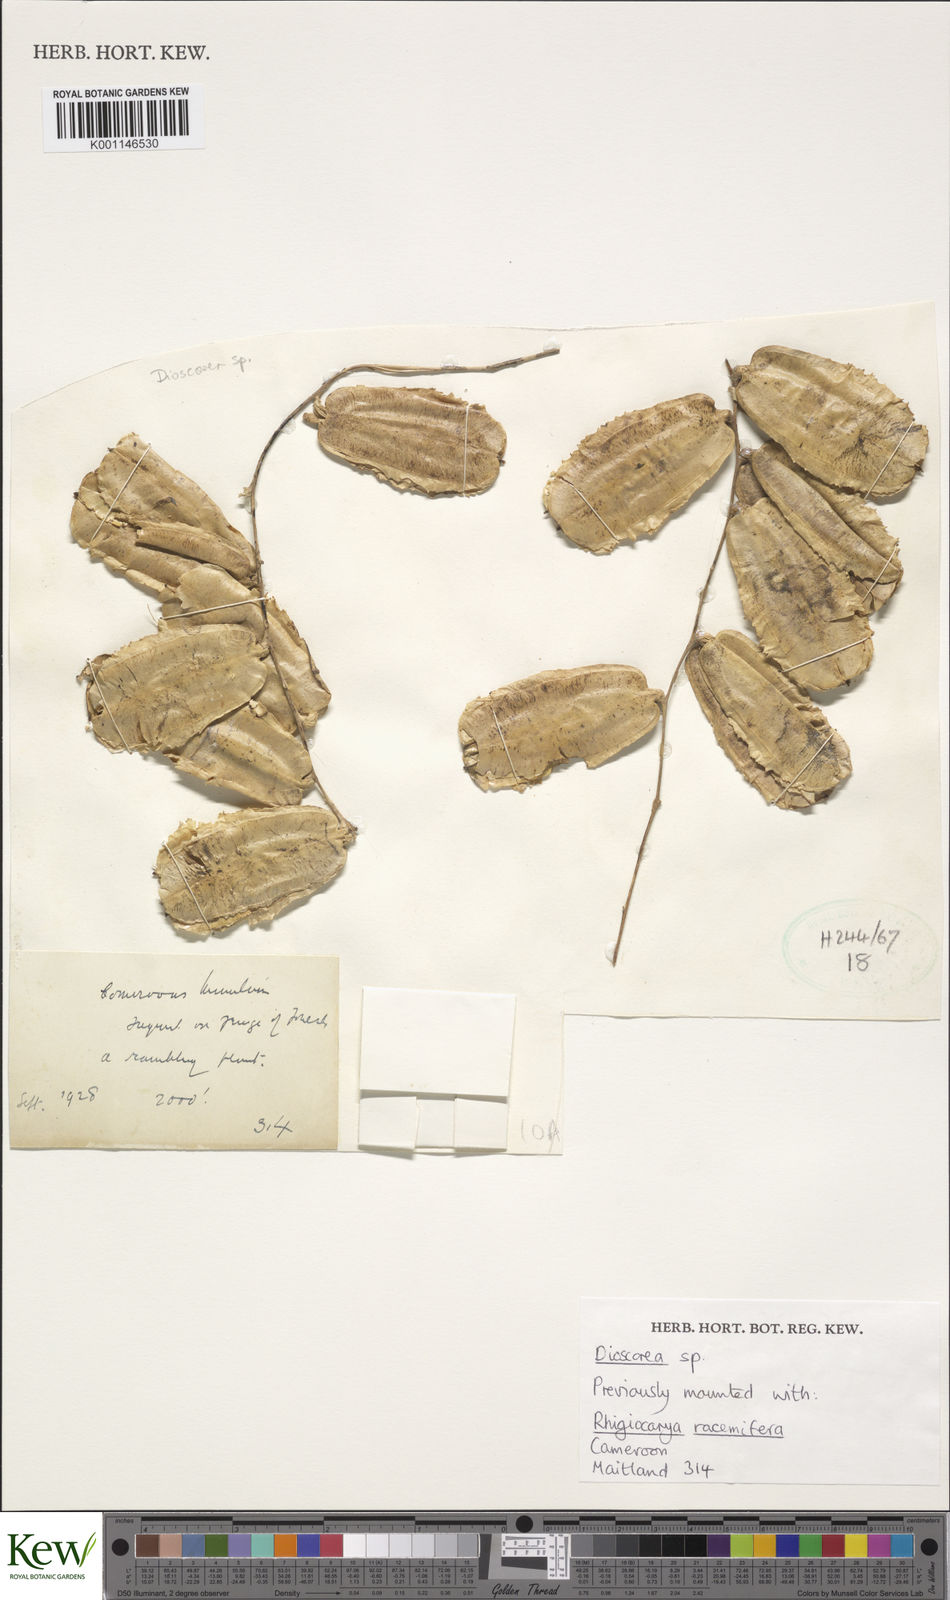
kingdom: Plantae
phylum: Tracheophyta
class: Liliopsida
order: Dioscoreales
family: Dioscoreaceae
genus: Dioscorea
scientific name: Dioscorea
